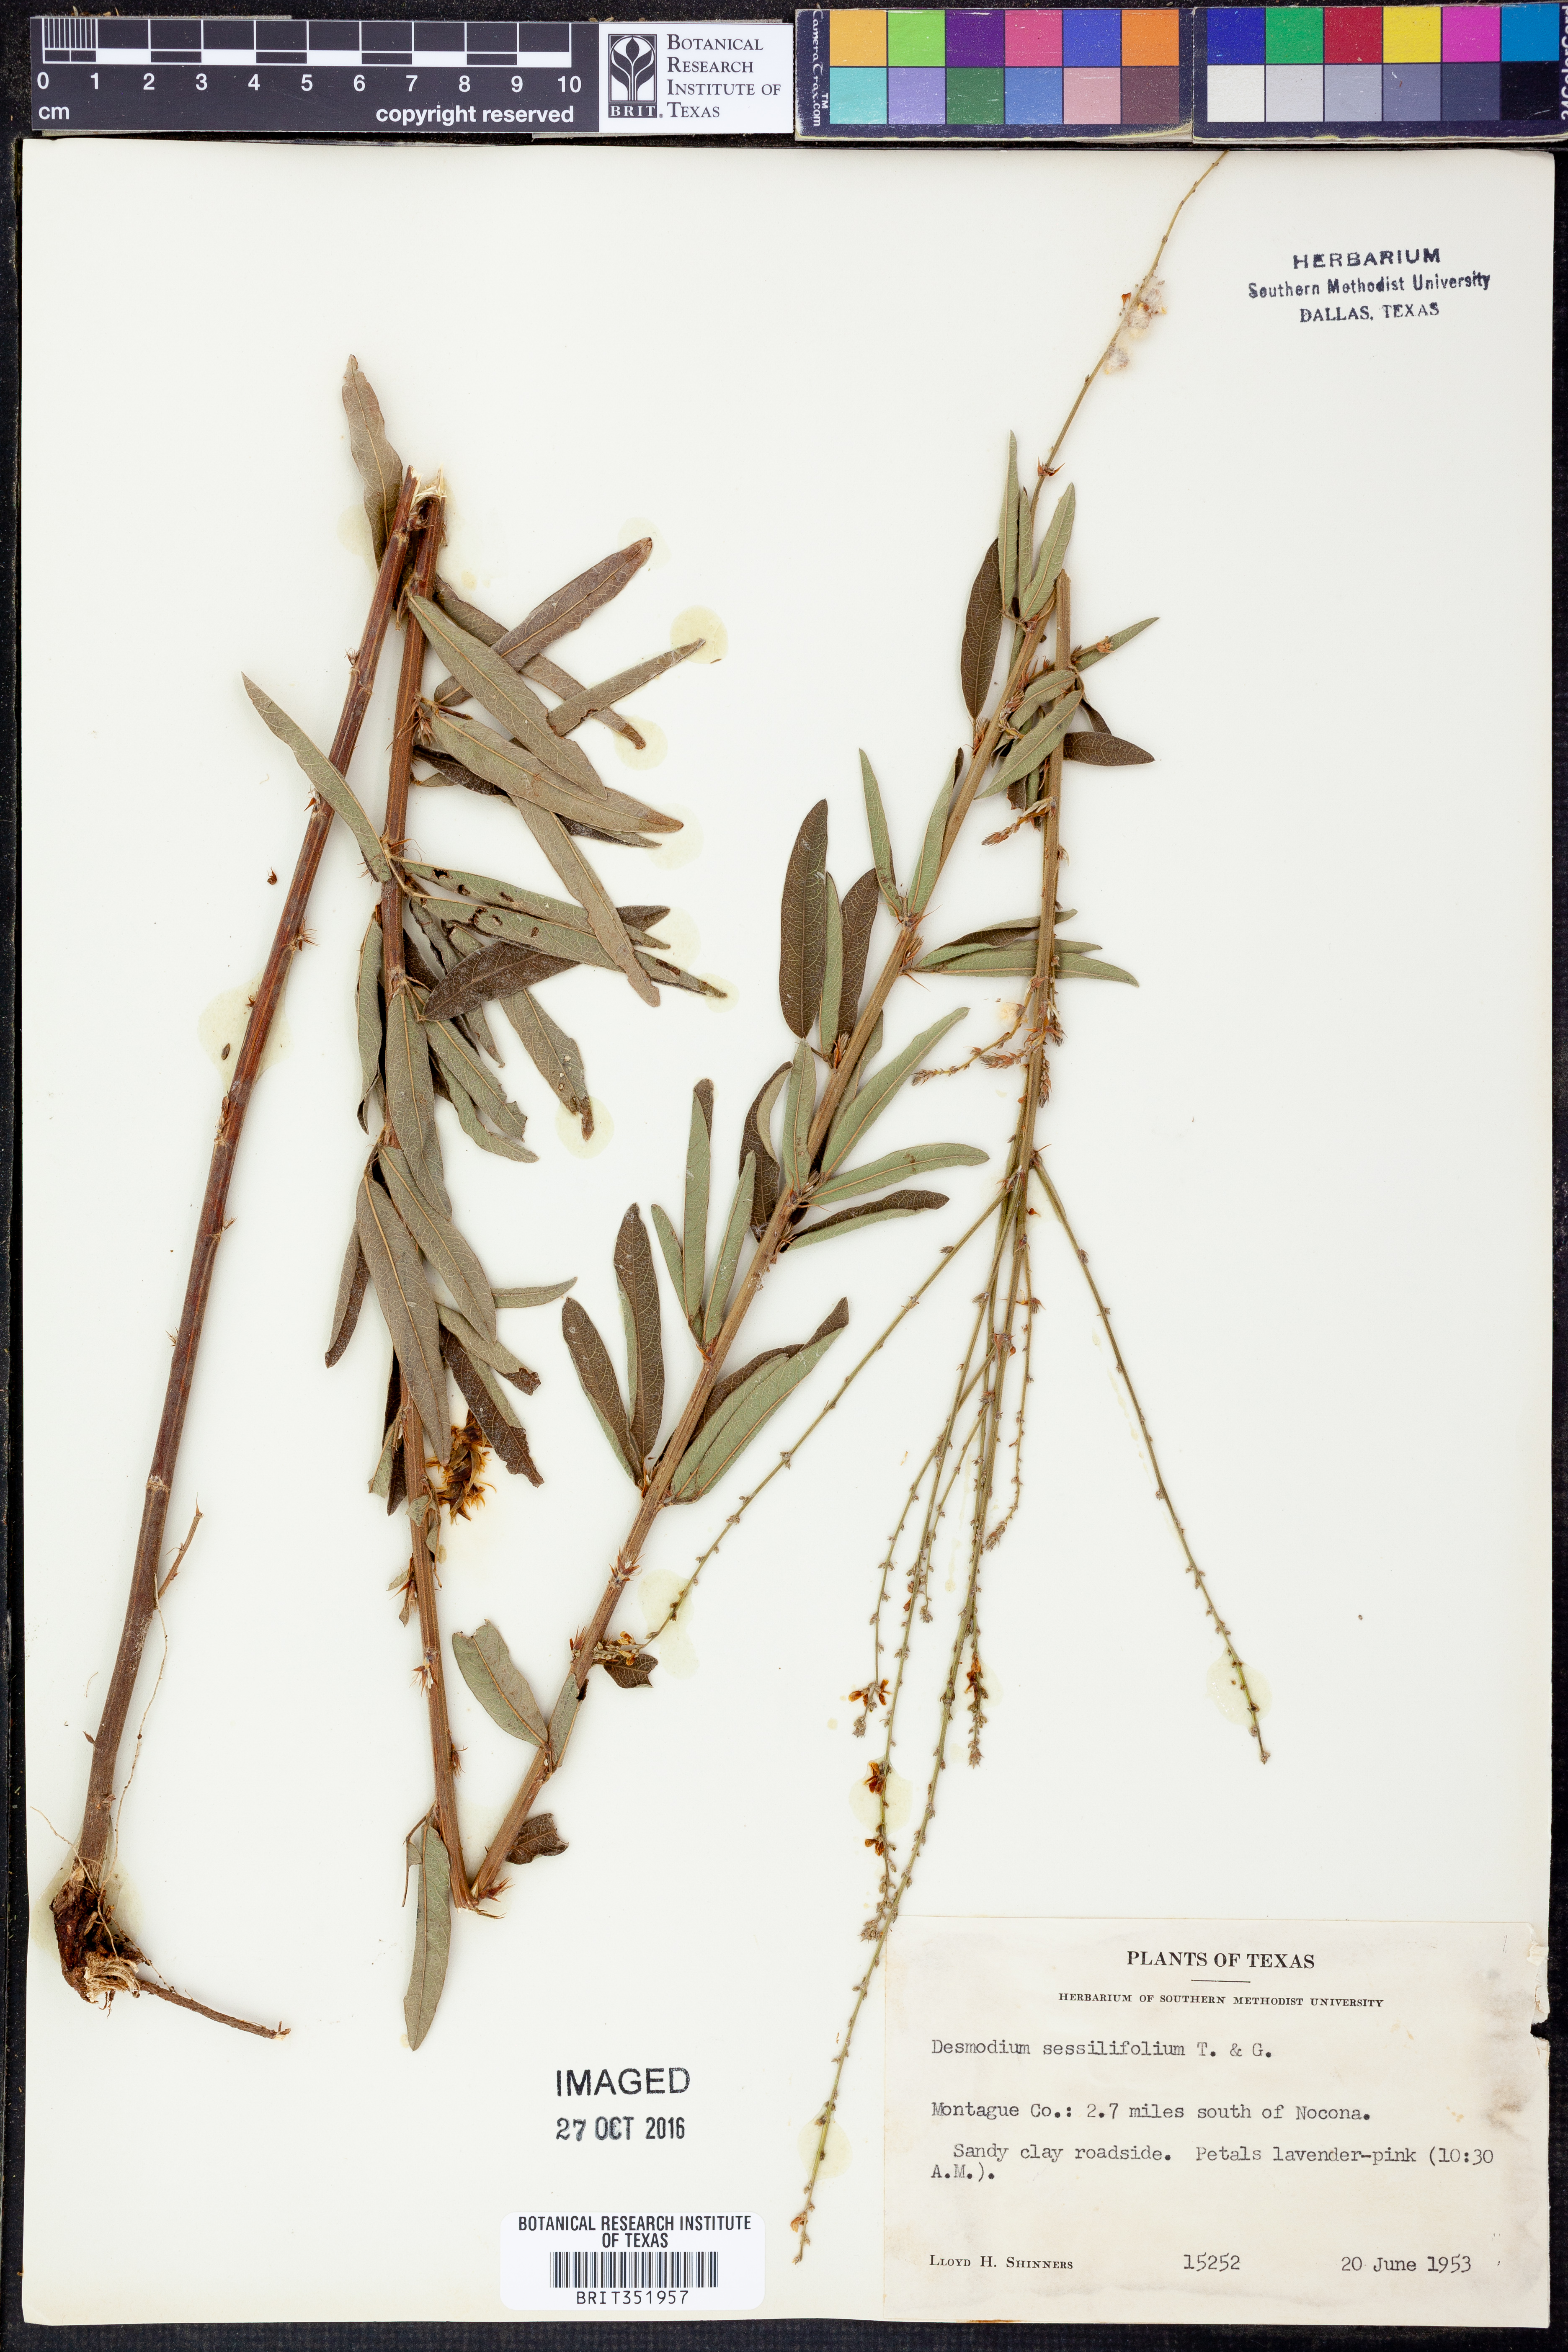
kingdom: Plantae
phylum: Tracheophyta
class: Magnoliopsida
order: Fabales
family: Fabaceae
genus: Desmodium
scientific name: Desmodium sessilifolium
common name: Sessile tick-clover
